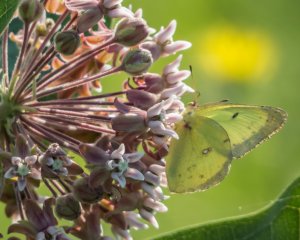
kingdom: Animalia
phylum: Arthropoda
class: Insecta
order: Lepidoptera
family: Pieridae
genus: Colias
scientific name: Colias philodice
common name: Clouded Sulphur
